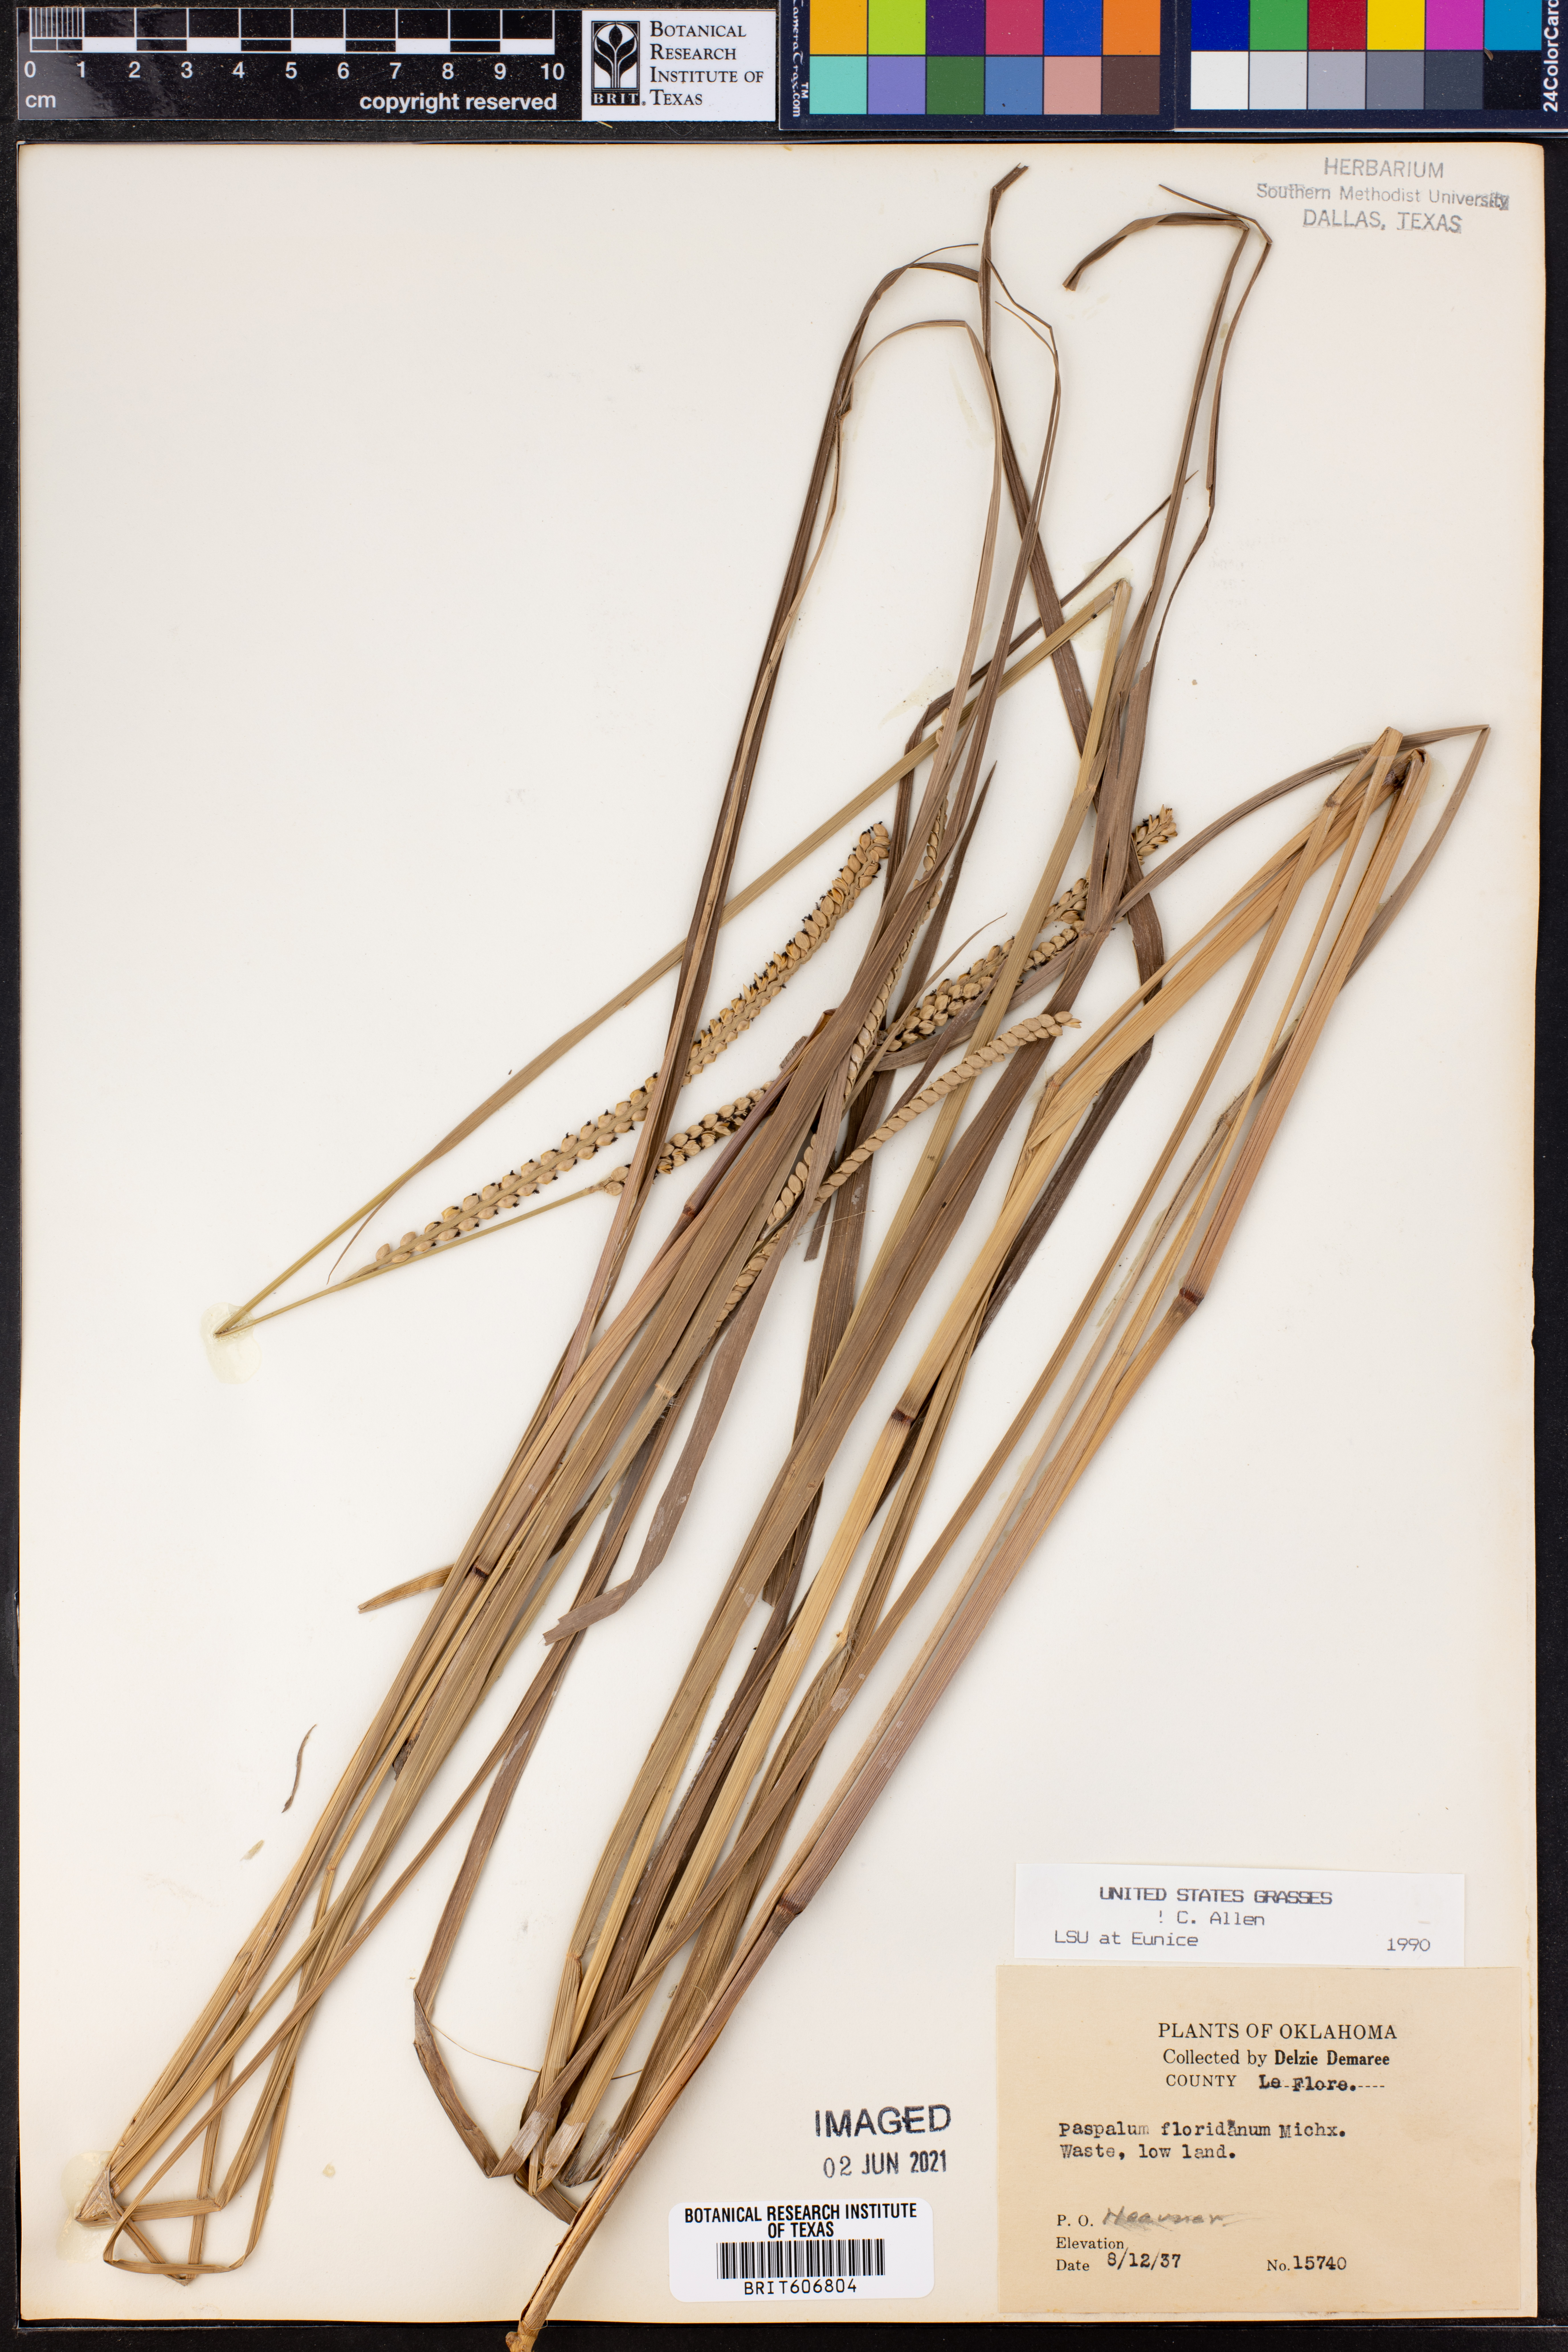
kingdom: Plantae
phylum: Tracheophyta
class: Liliopsida
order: Poales
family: Poaceae
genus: Paspalum
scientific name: Paspalum floridanum
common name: Florida paspalum
